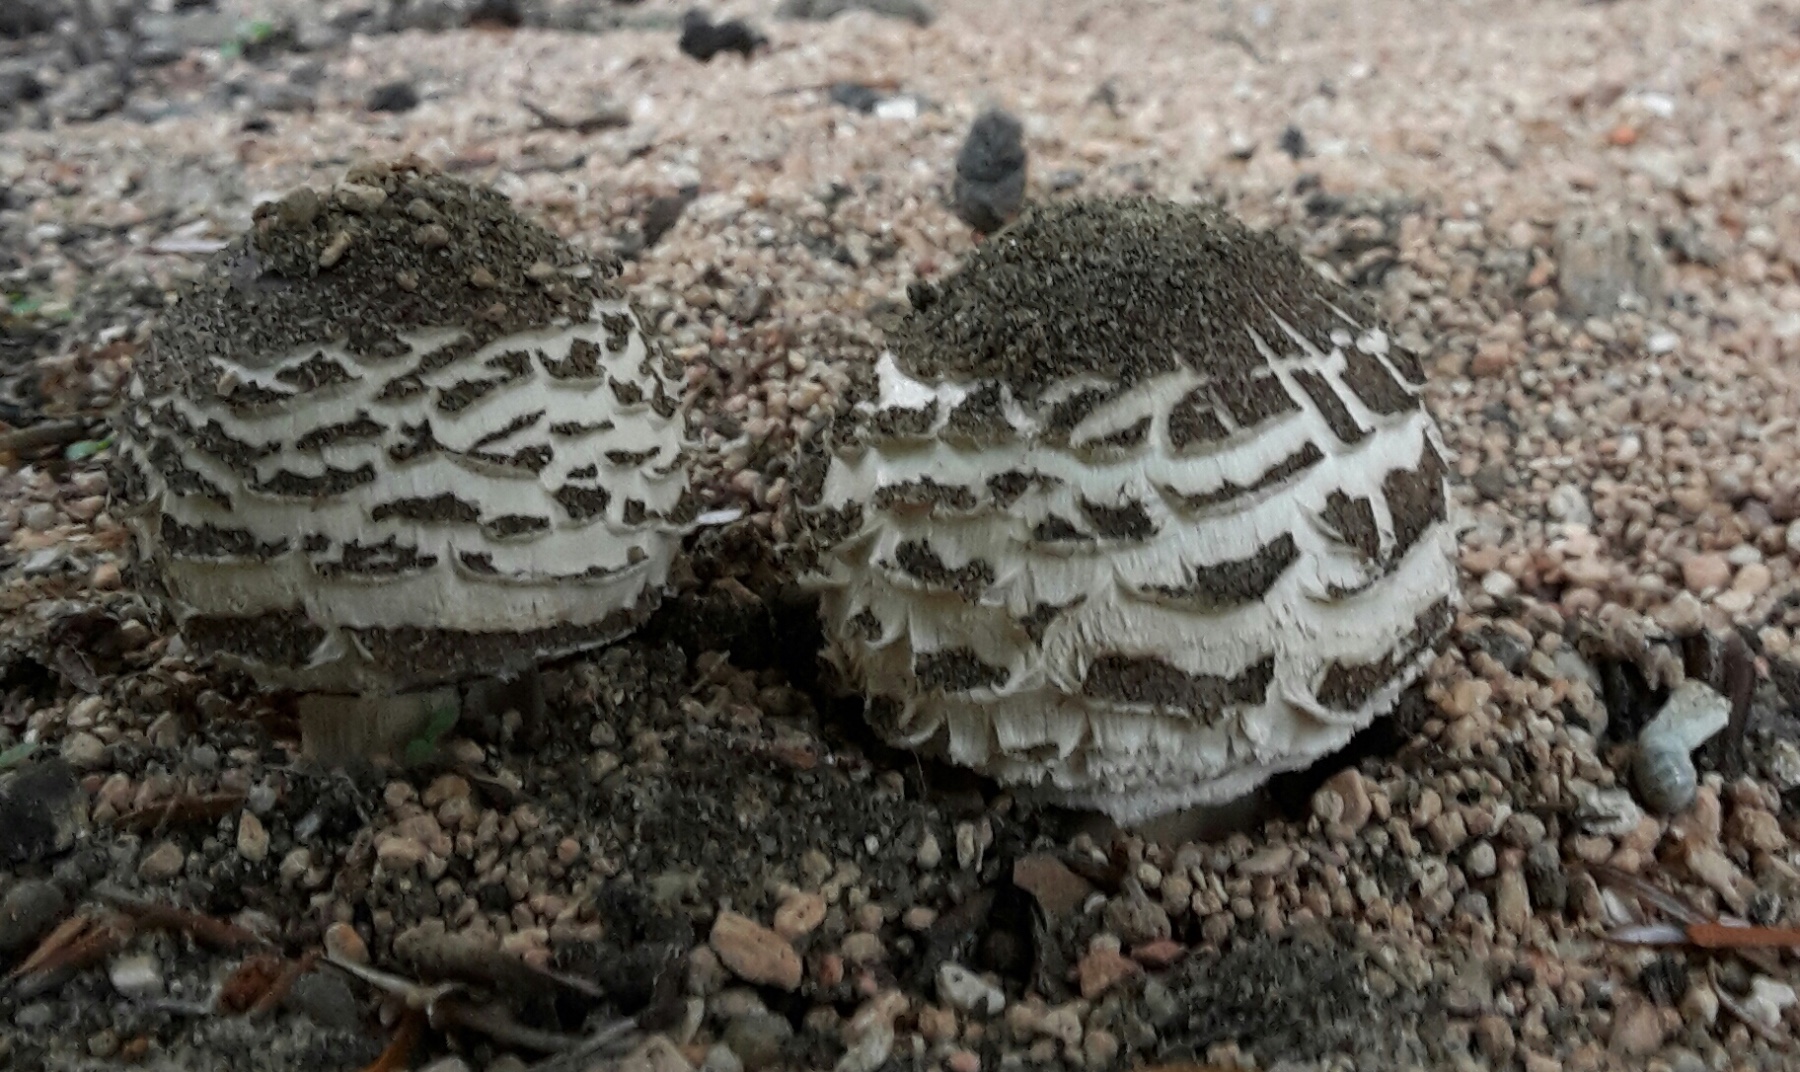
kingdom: Fungi
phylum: Basidiomycota
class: Agaricomycetes
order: Agaricales
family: Agaricaceae
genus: Chlorophyllum
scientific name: Chlorophyllum brunneum
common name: giftig rabarberhat
